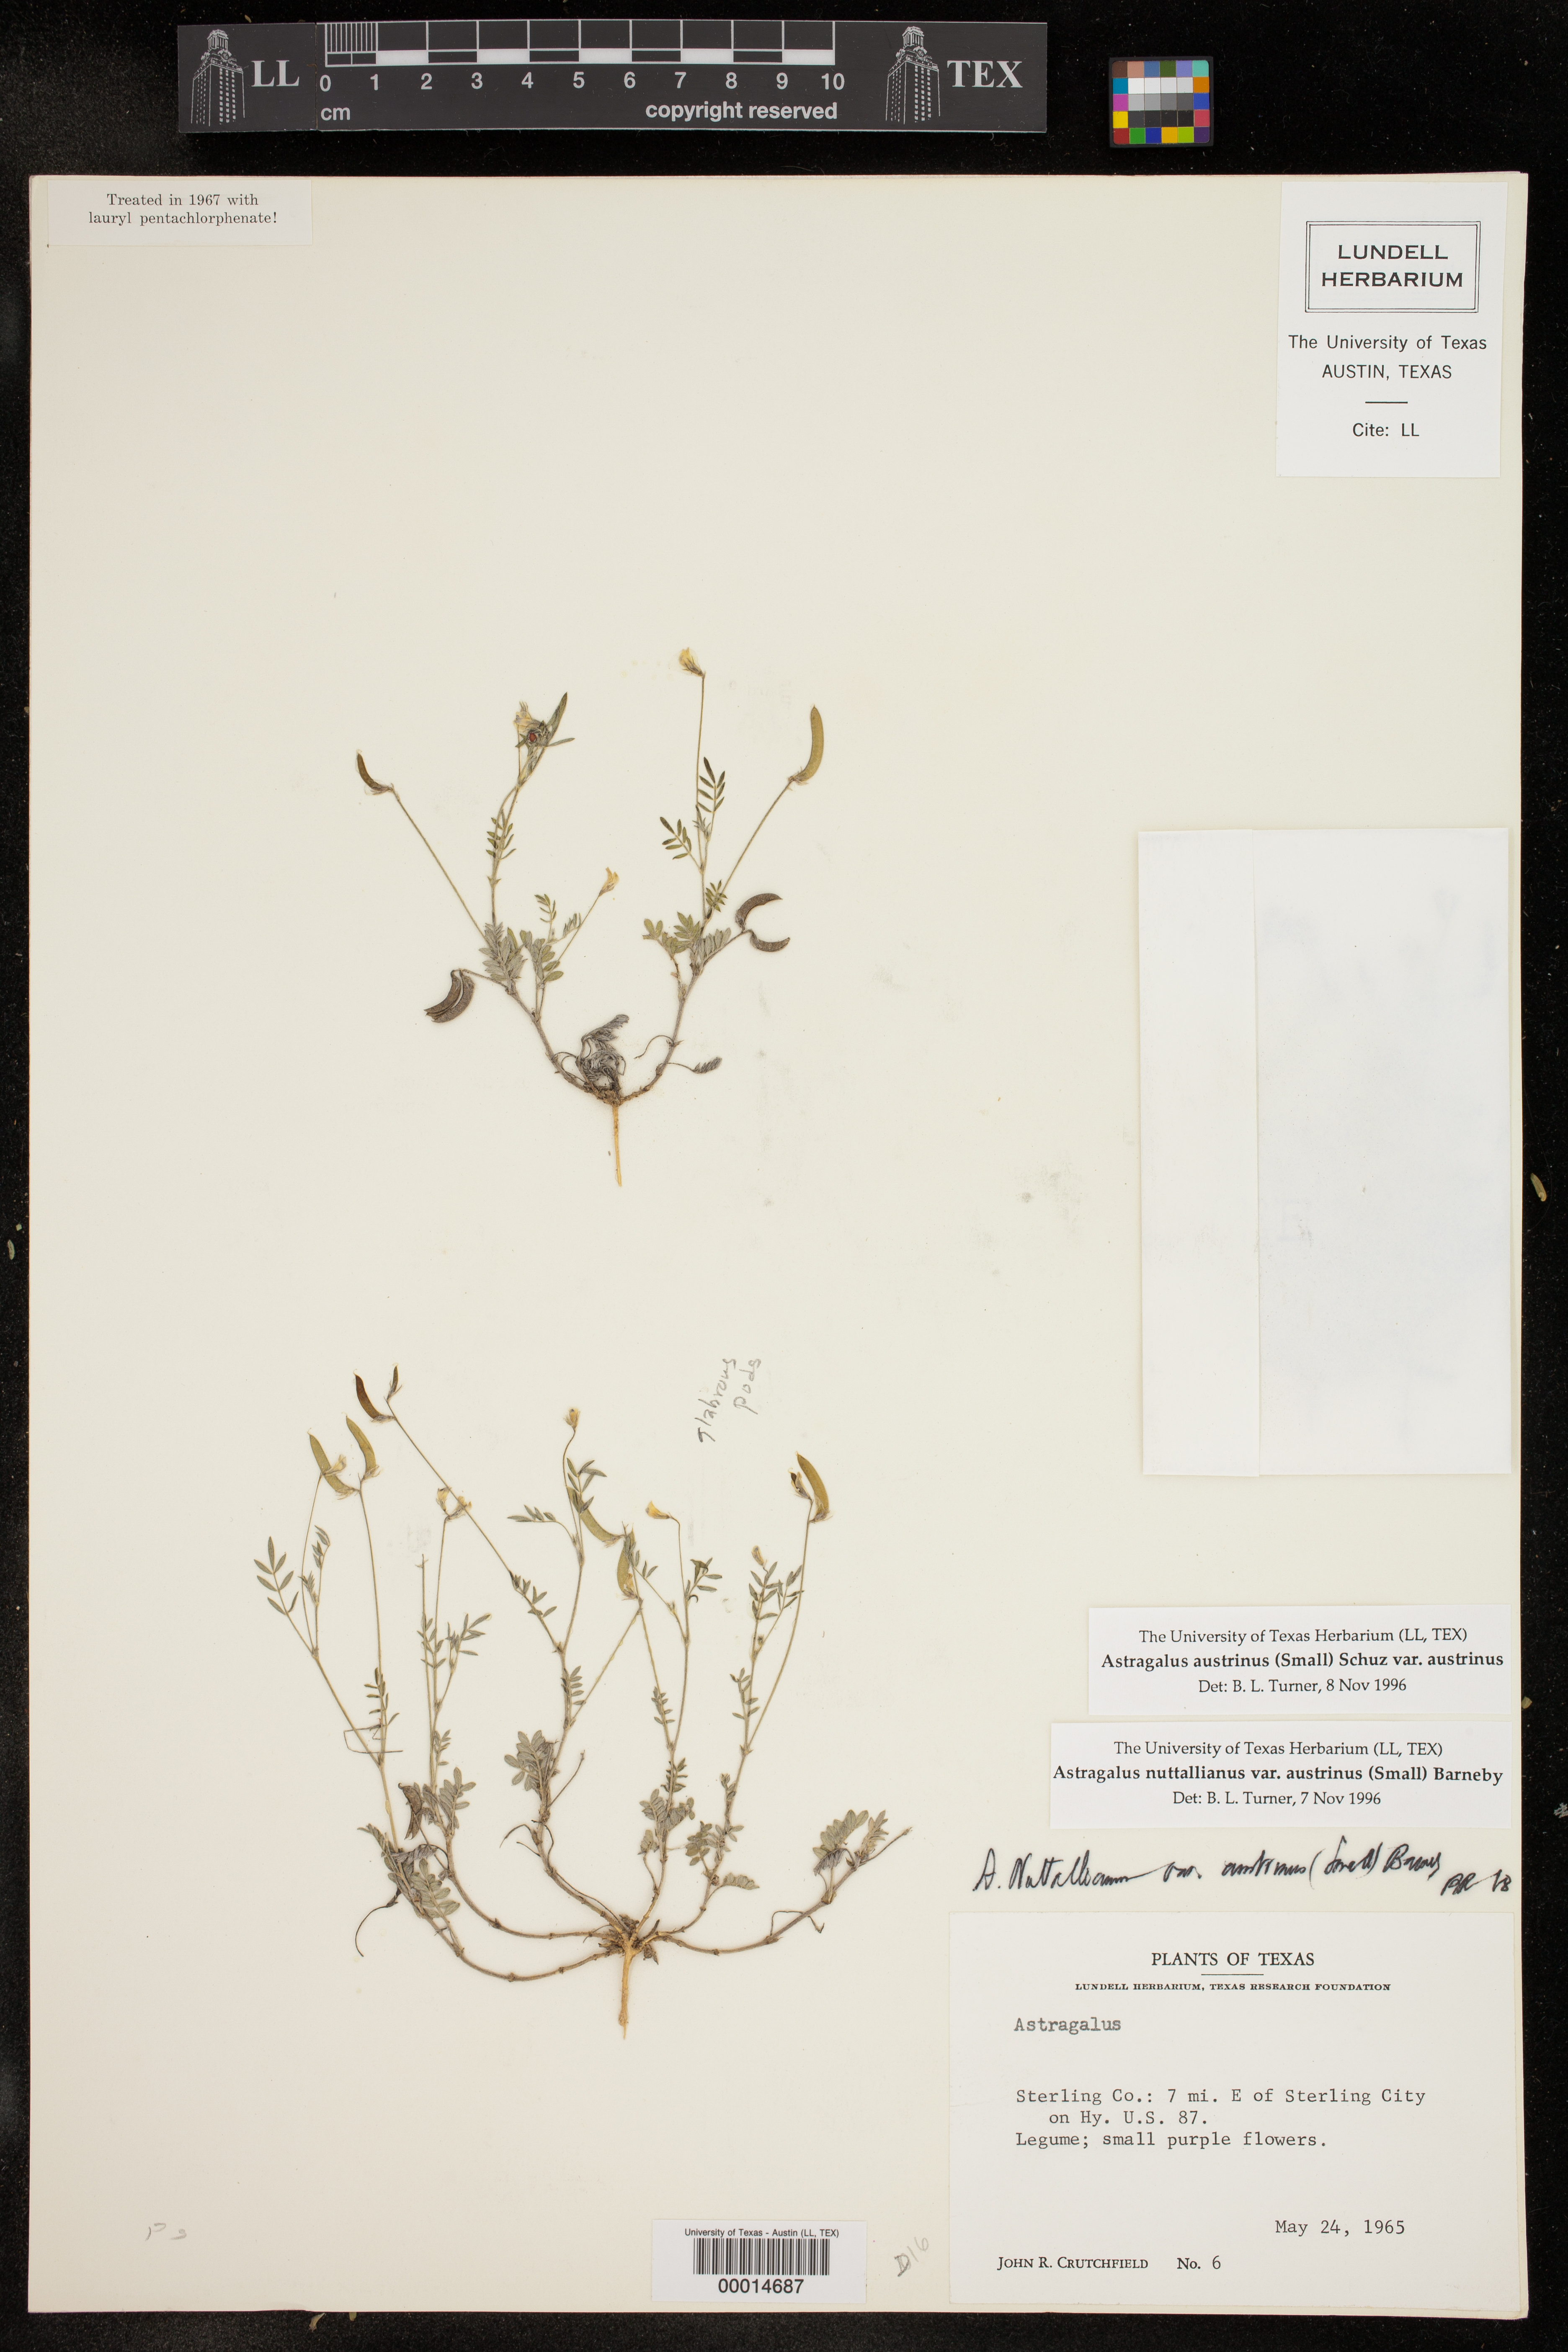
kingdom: Plantae
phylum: Tracheophyta
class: Magnoliopsida
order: Fabales
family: Fabaceae
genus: Astragalus
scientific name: Astragalus nuttallianus
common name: Smallflowered milkvetch
